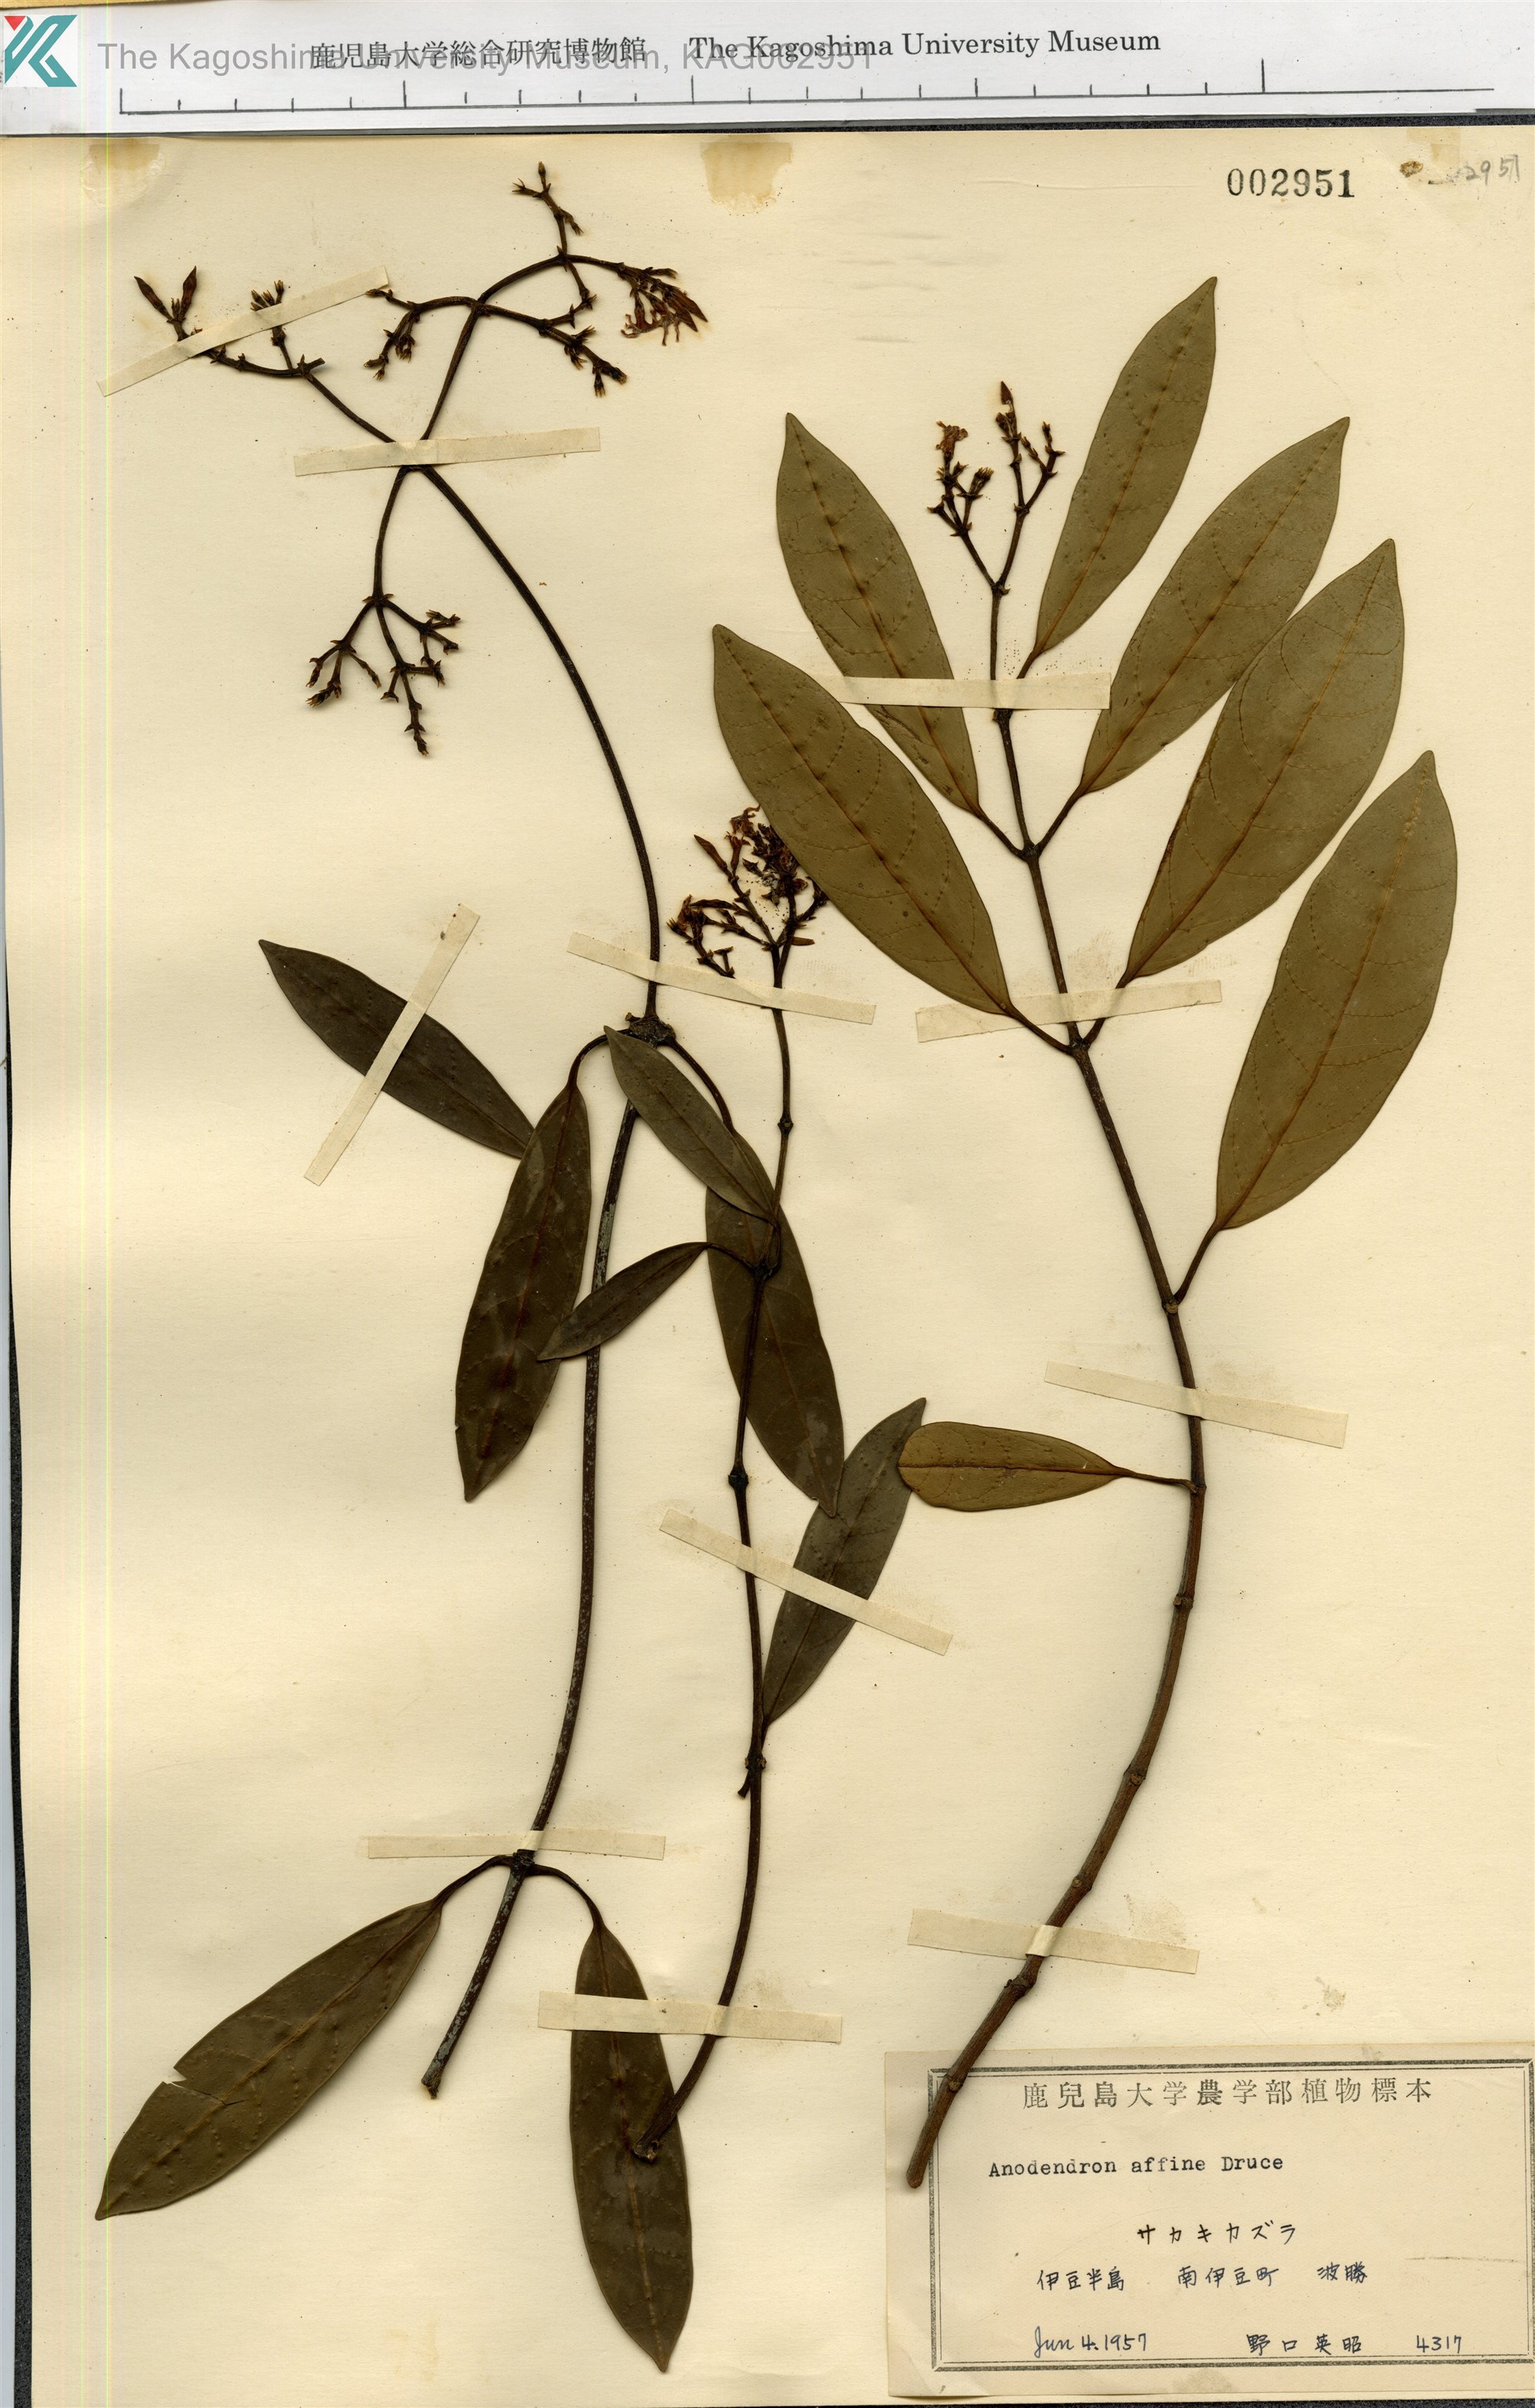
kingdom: Plantae
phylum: Tracheophyta
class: Magnoliopsida
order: Gentianales
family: Apocynaceae
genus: Anodendron
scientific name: Anodendron affine
